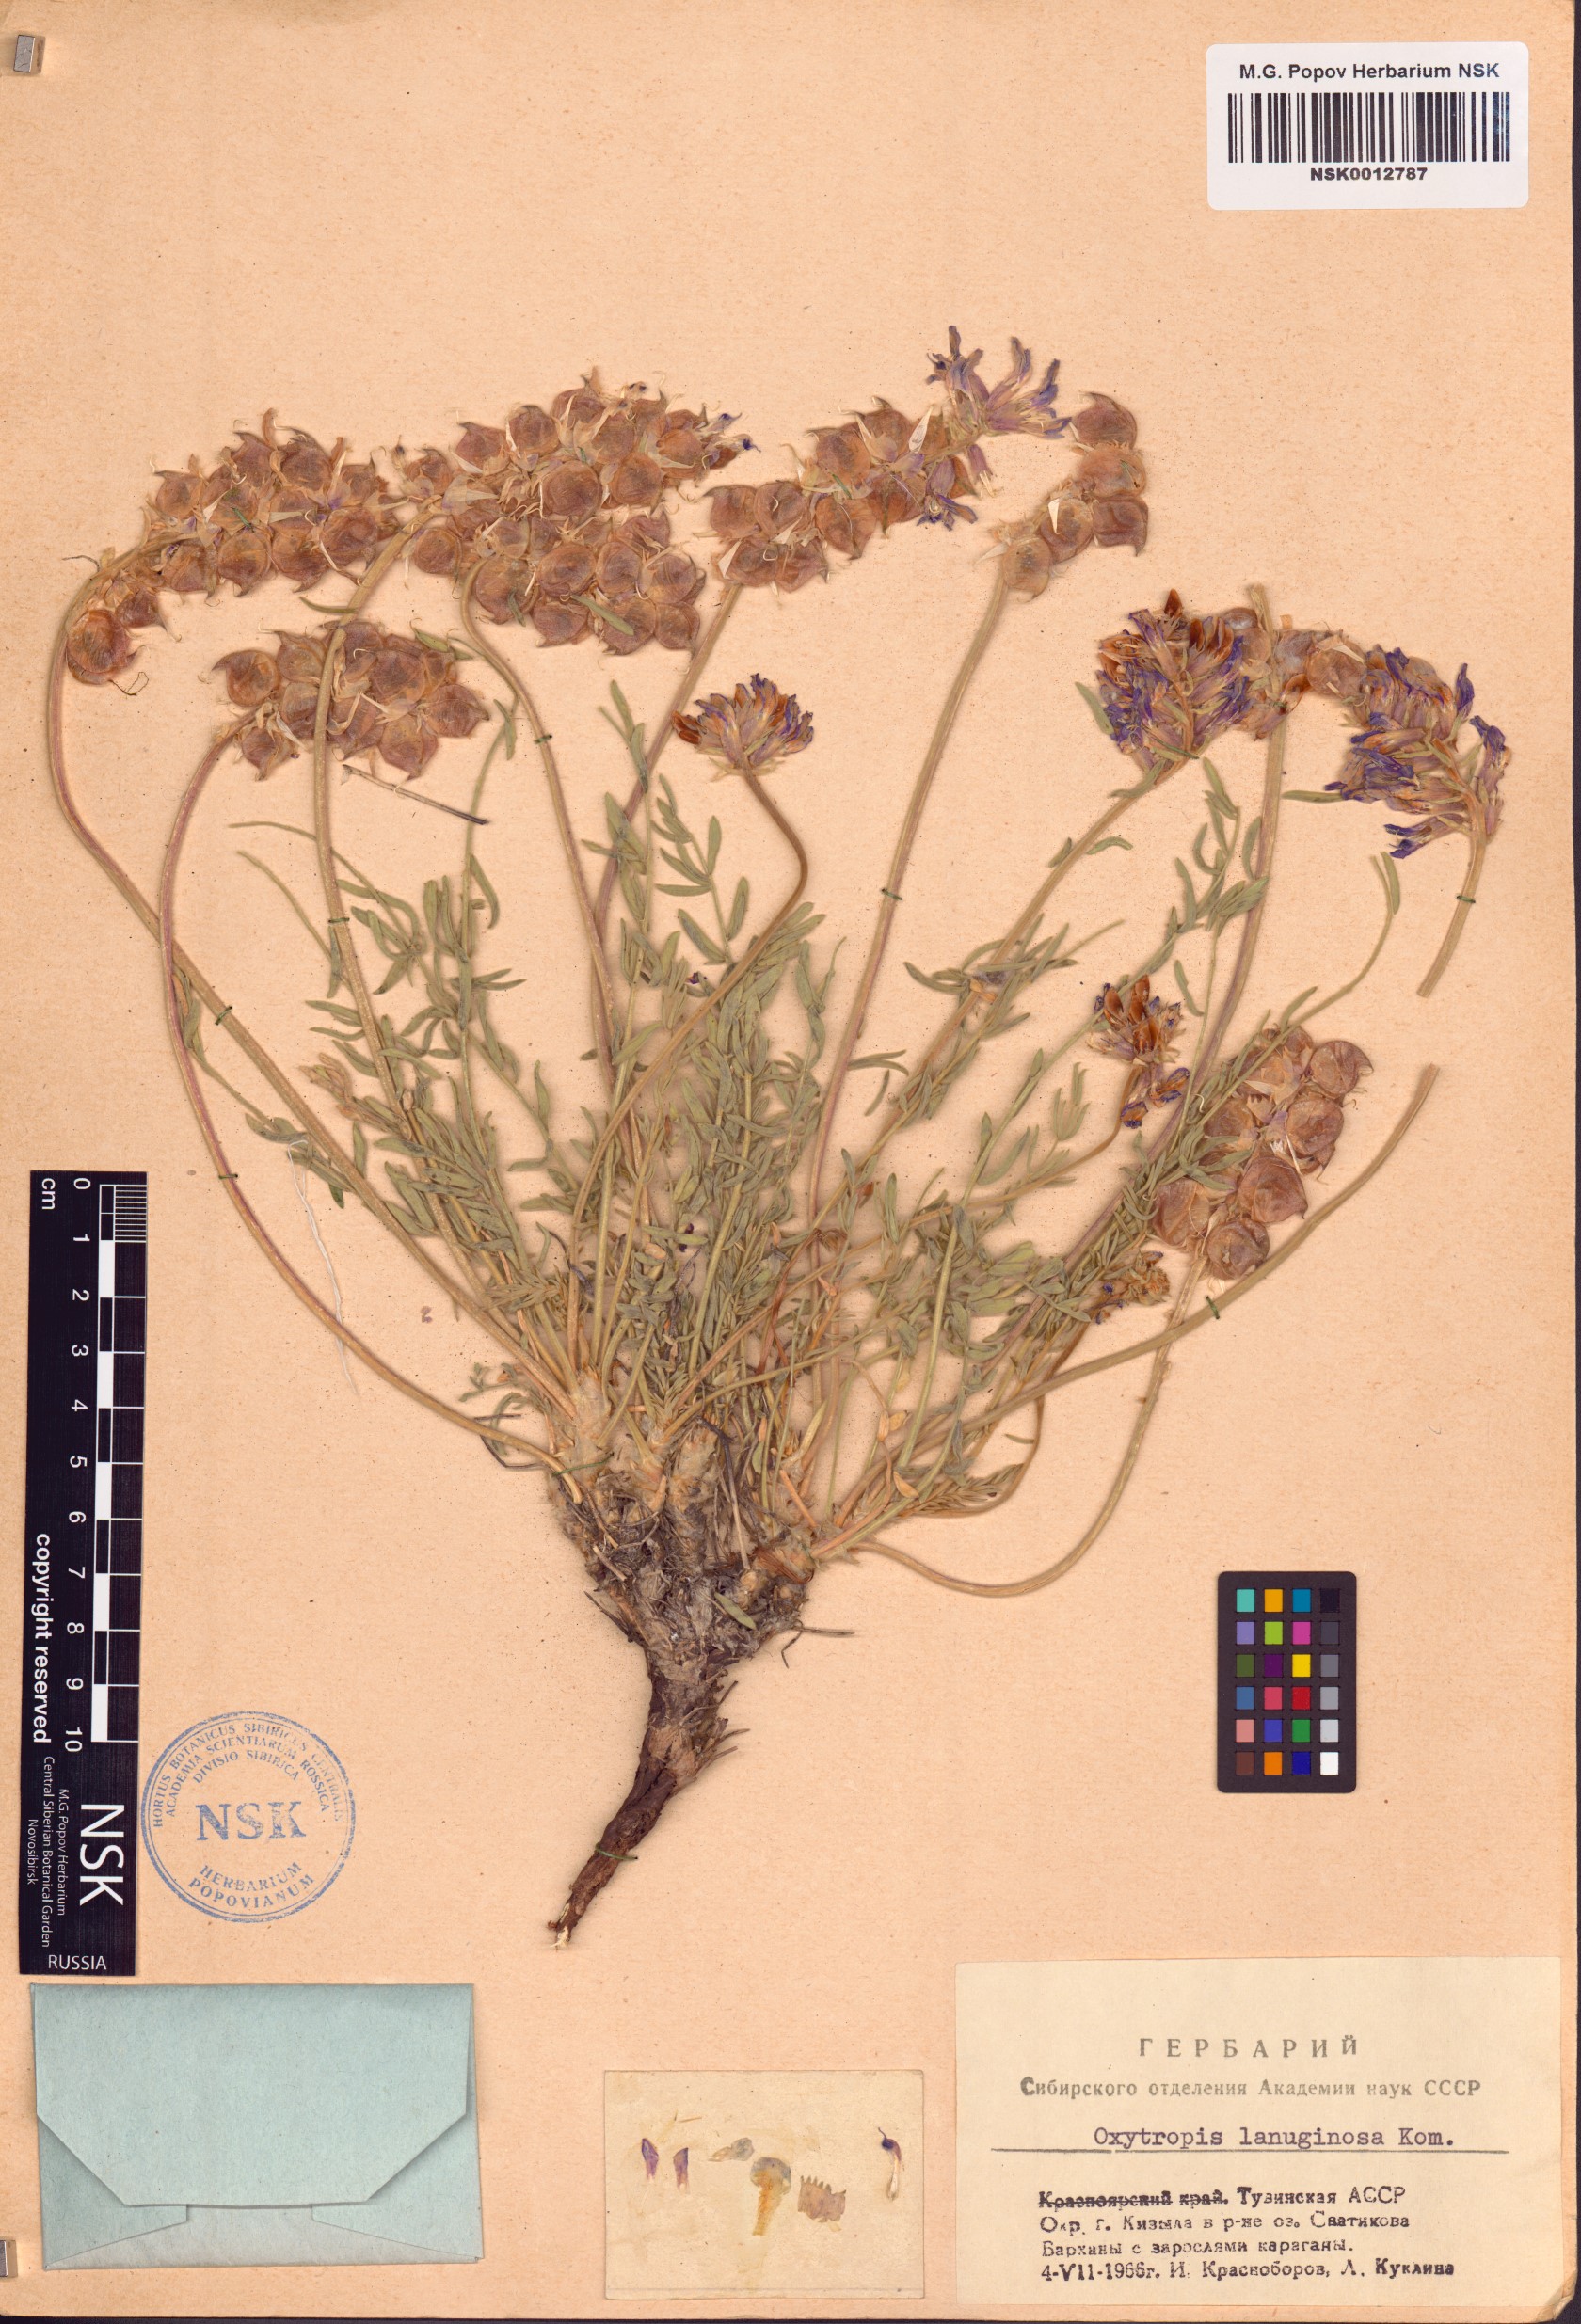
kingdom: Plantae
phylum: Tracheophyta
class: Magnoliopsida
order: Fabales
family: Fabaceae
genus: Oxytropis
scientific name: Oxytropis lanuginosa
